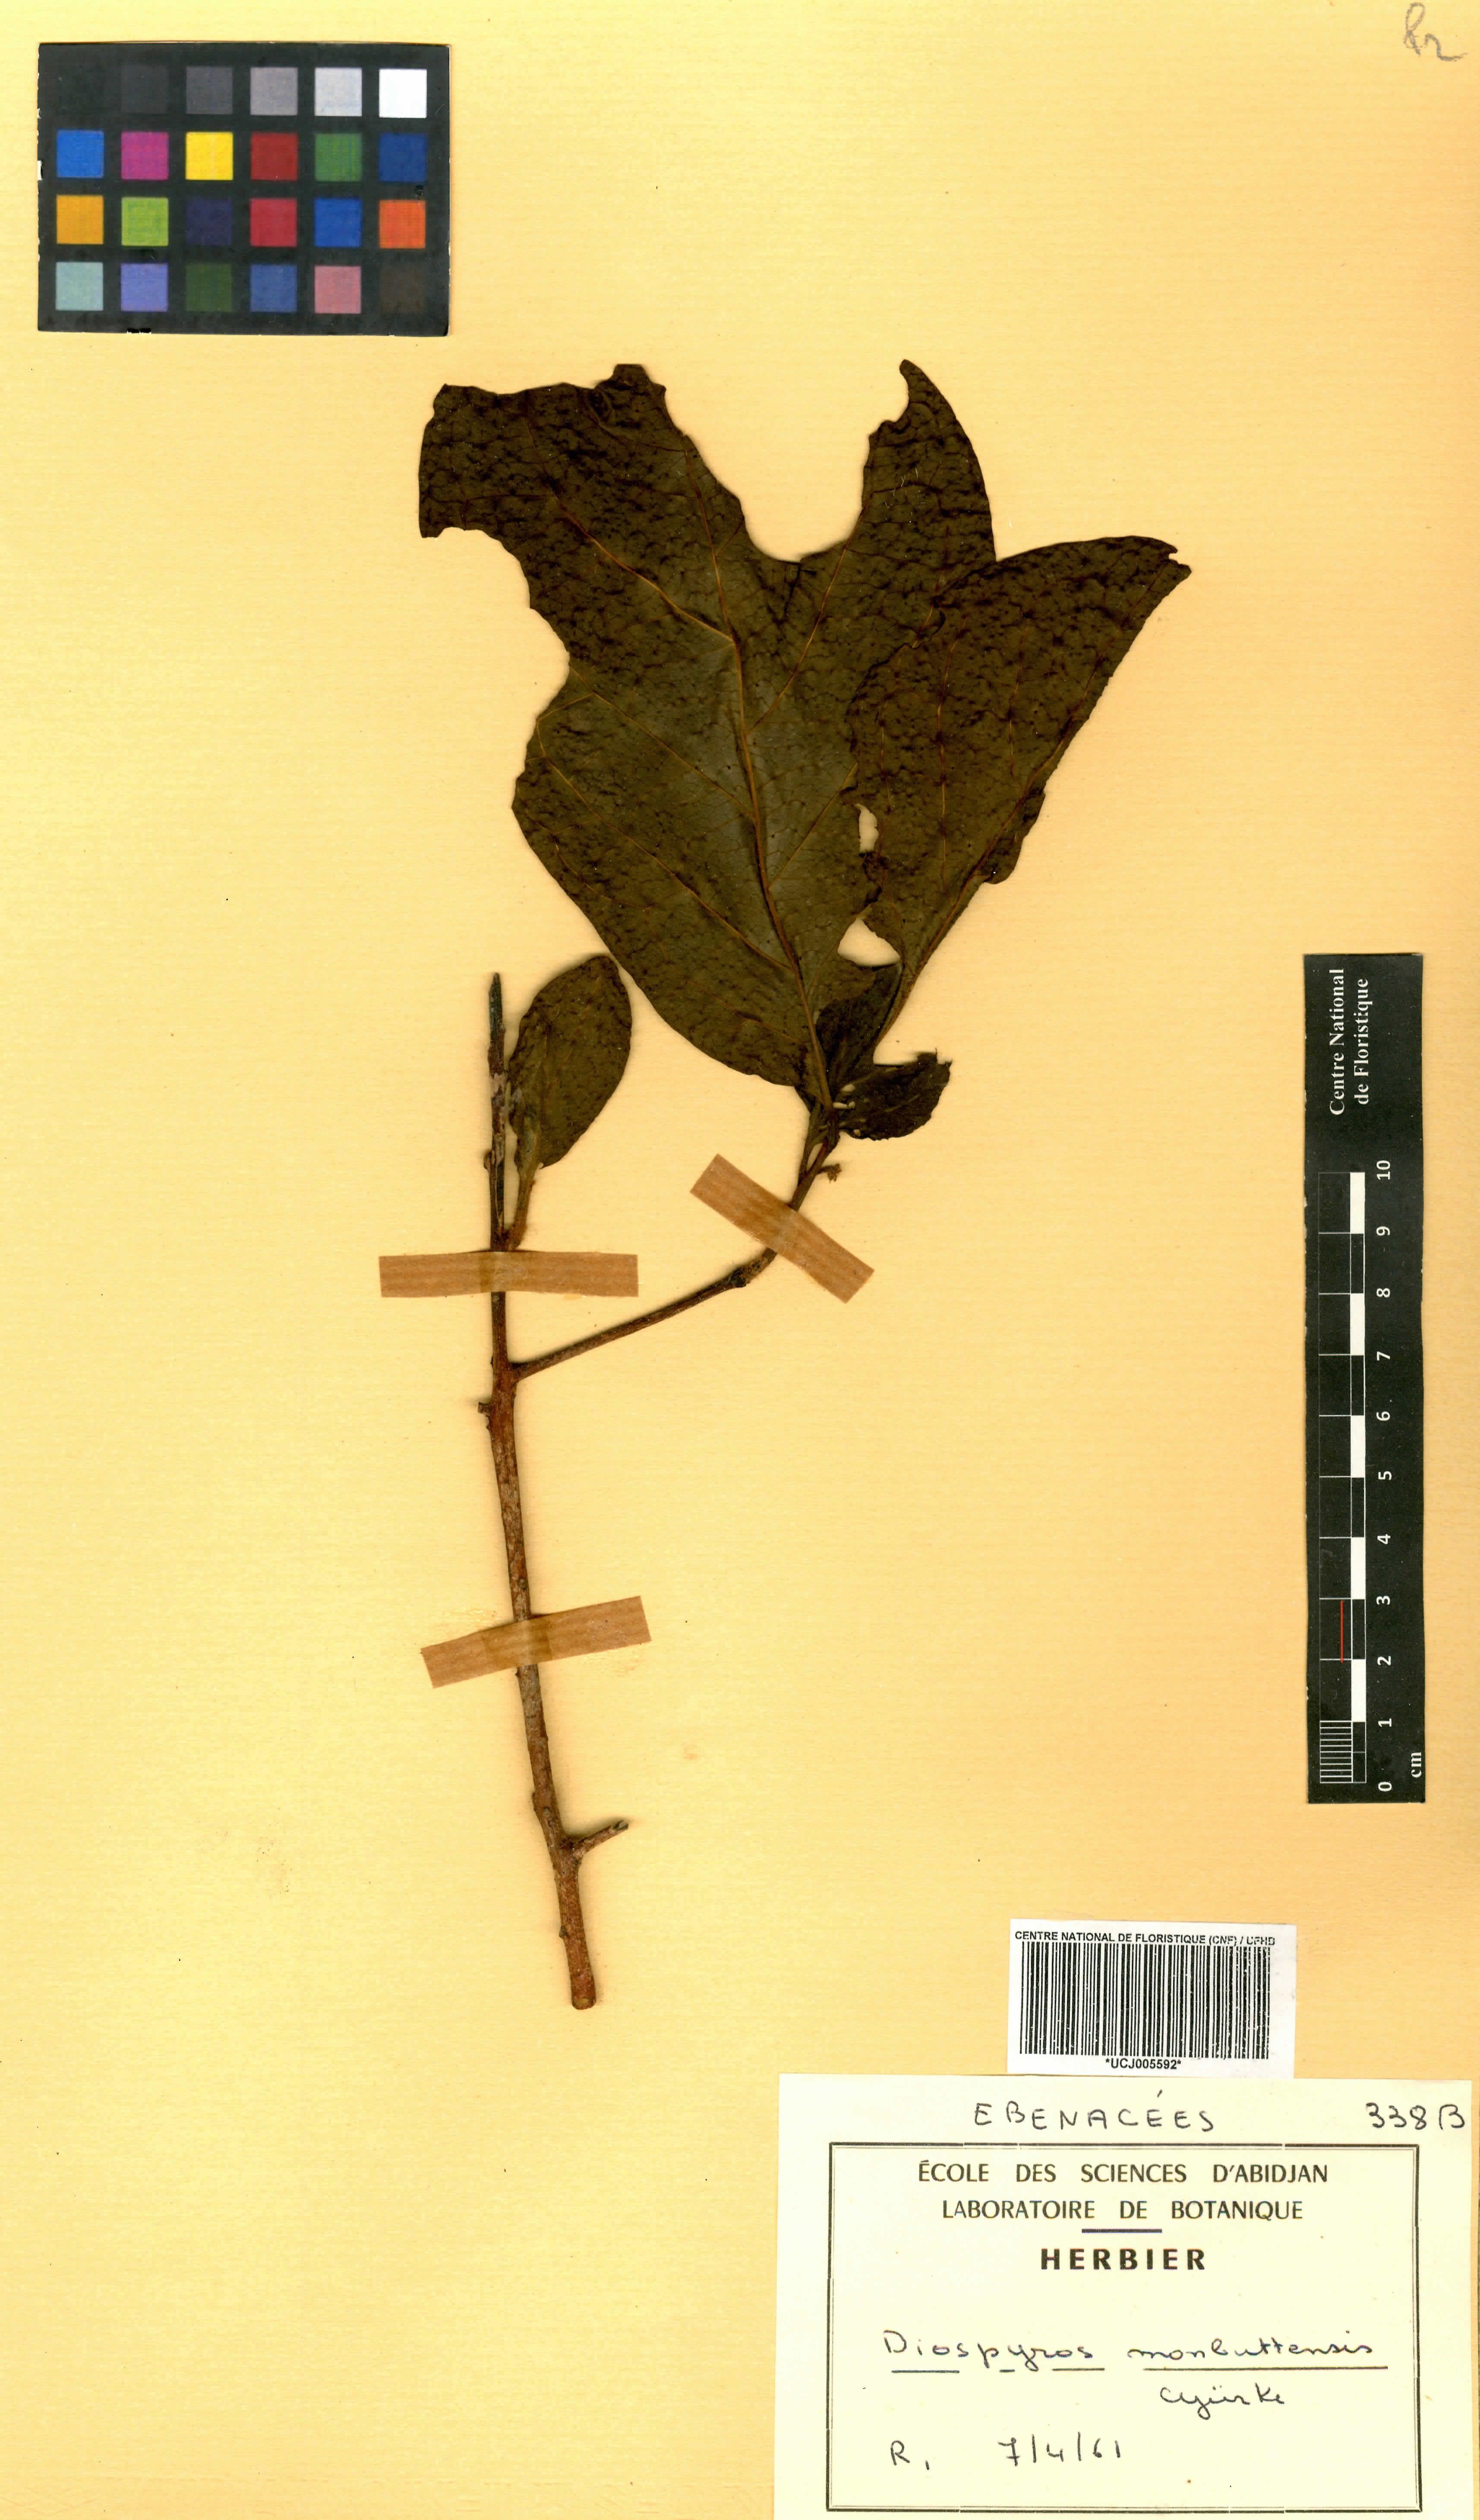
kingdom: Plantae
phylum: Tracheophyta
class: Magnoliopsida
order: Ericales
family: Ebenaceae
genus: Diospyros
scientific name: Diospyros monbuttensis
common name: Walking-stick ebony
